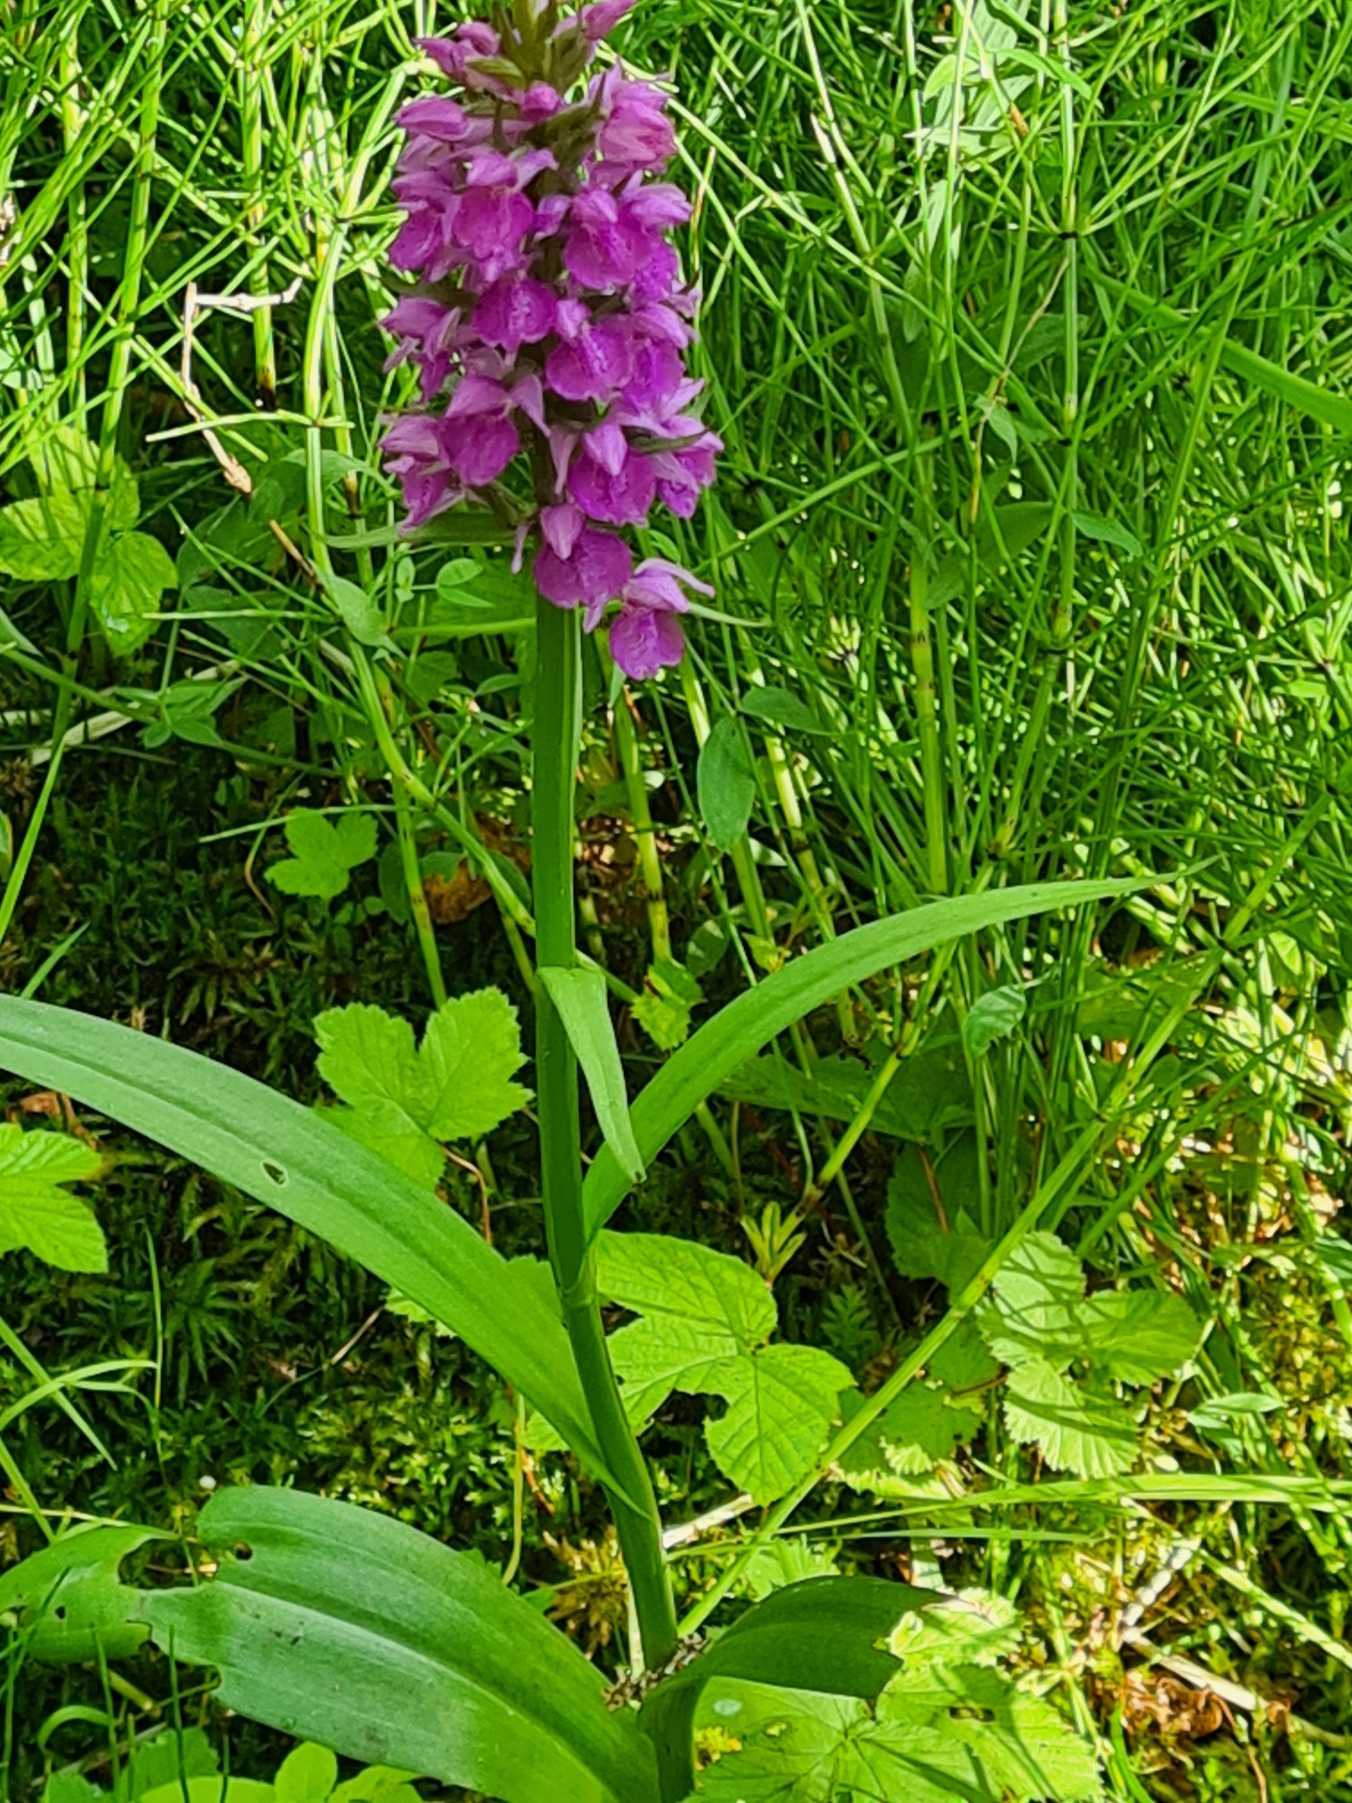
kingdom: Plantae
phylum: Tracheophyta
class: Liliopsida
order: Asparagales
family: Orchidaceae
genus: Dactylorhiza
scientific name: Dactylorhiza majalis
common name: Priklæbet gøgeurt
